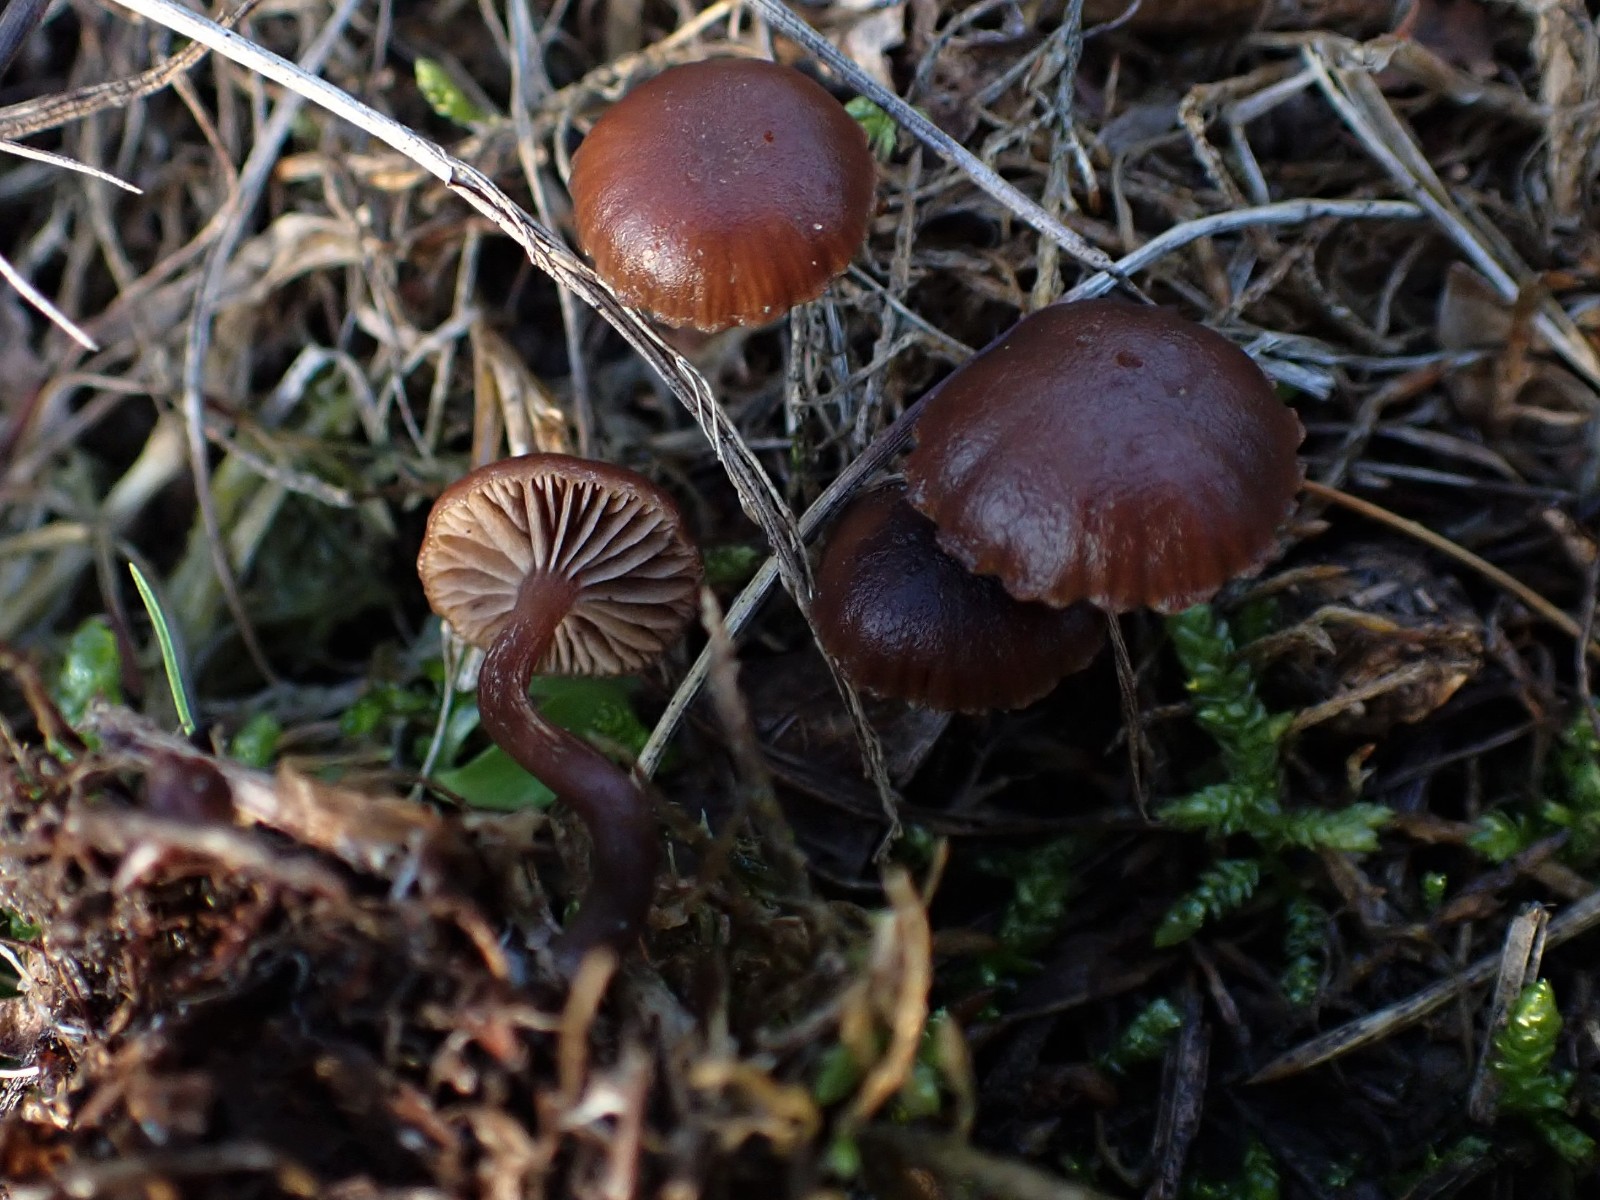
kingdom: Fungi
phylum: Basidiomycota
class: Agaricomycetes
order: Agaricales
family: Strophariaceae
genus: Deconica
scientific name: Deconica montana
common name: rødbrun stråhat
